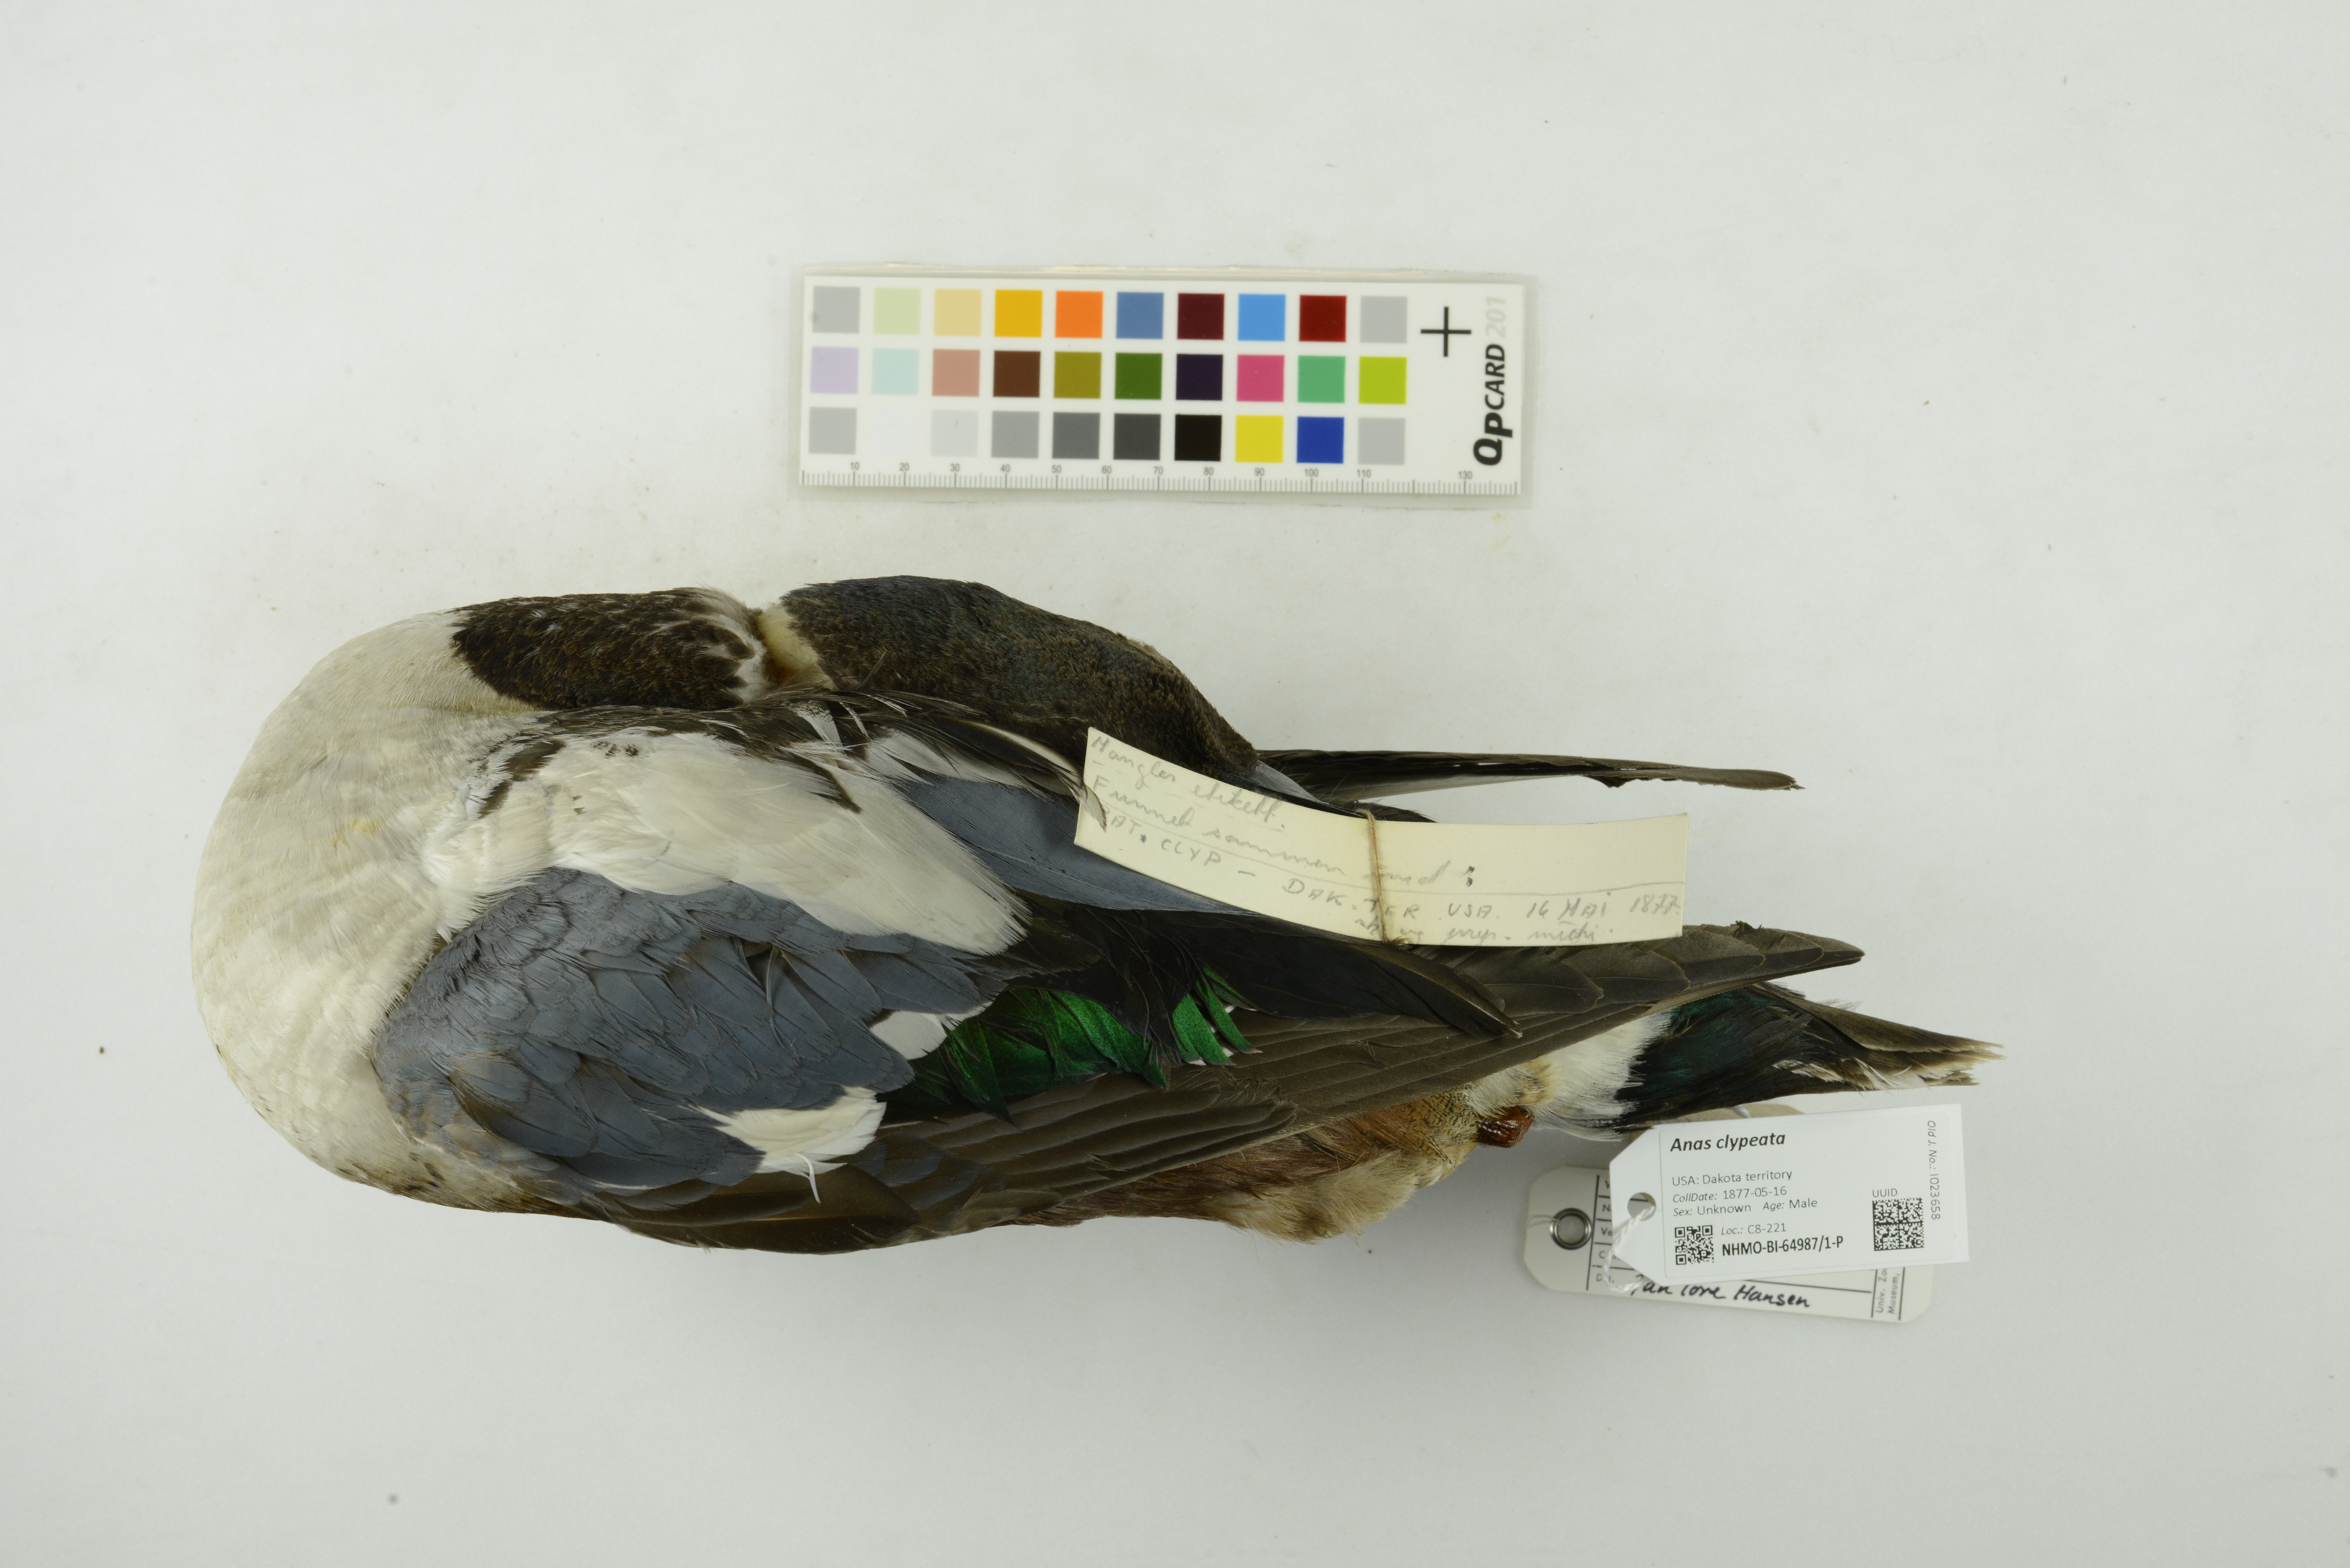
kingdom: Animalia
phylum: Chordata
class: Aves
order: Anseriformes
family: Anatidae
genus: Spatula
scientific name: Spatula clypeata
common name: Northern shoveler
